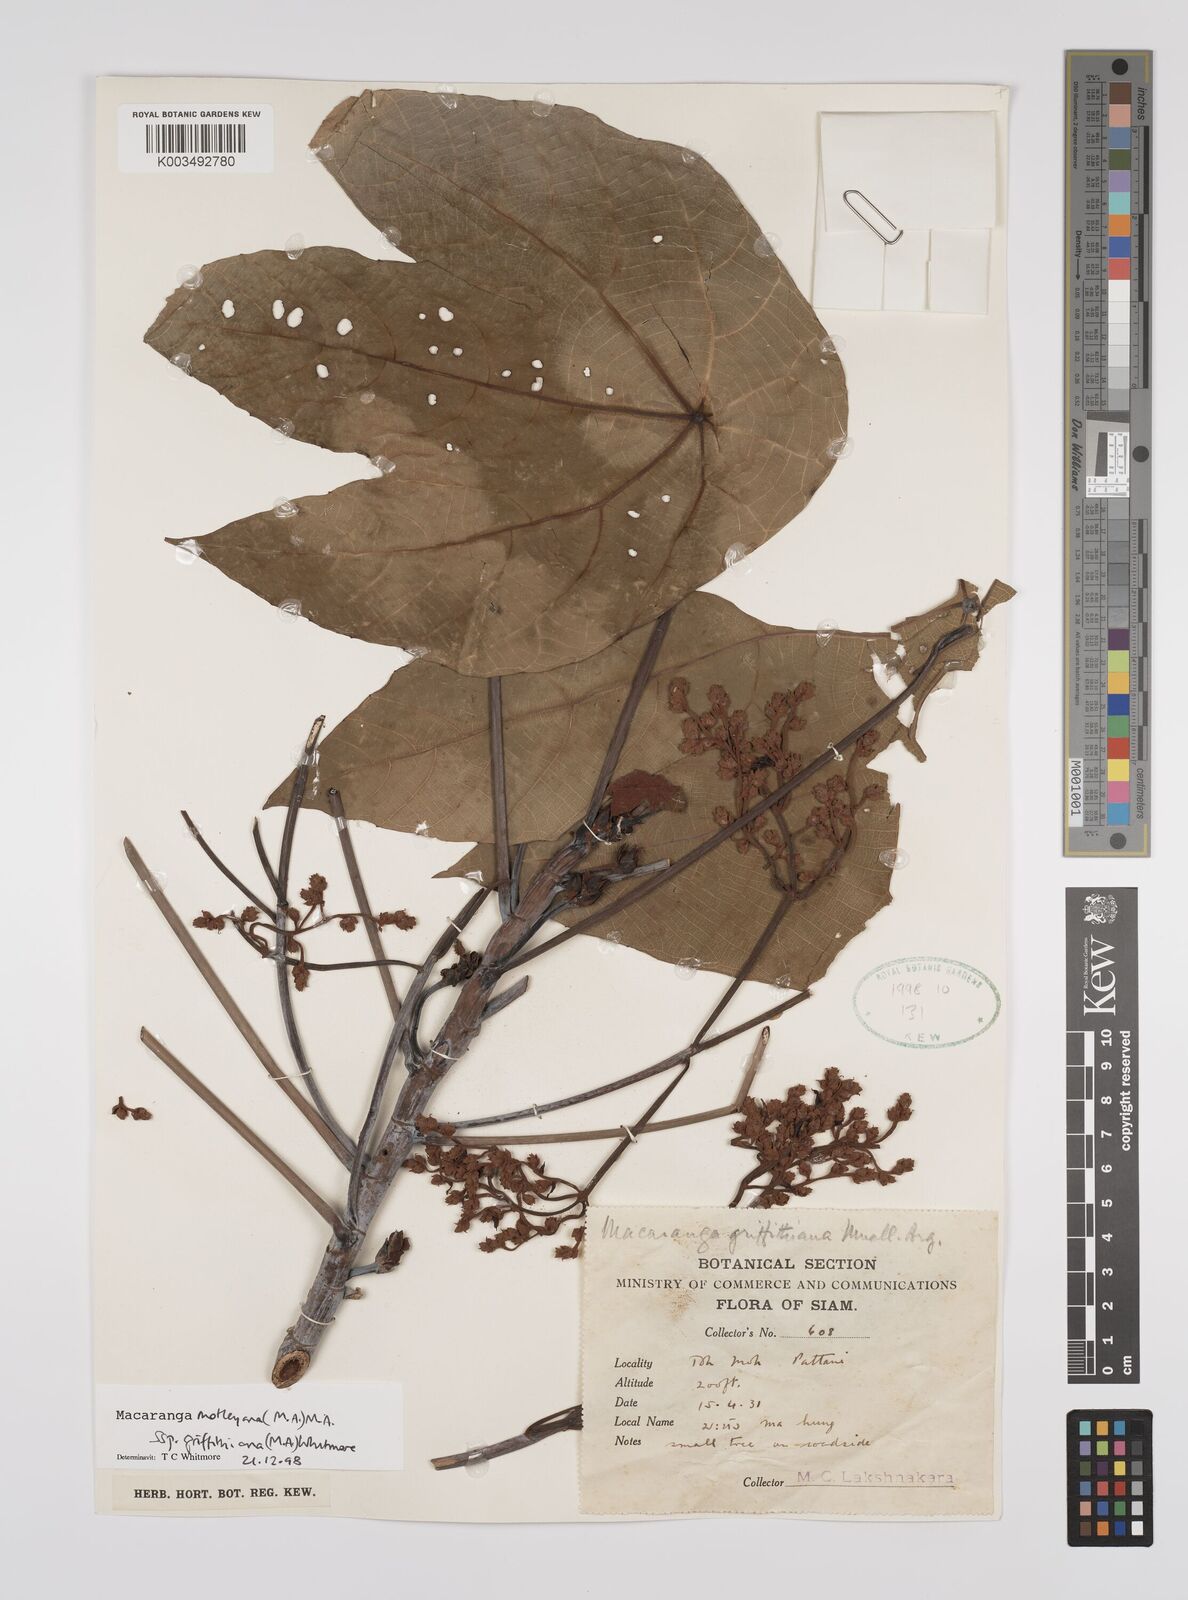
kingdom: Plantae
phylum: Tracheophyta
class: Magnoliopsida
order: Malpighiales
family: Euphorbiaceae
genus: Macaranga
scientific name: Macaranga griffithiana
